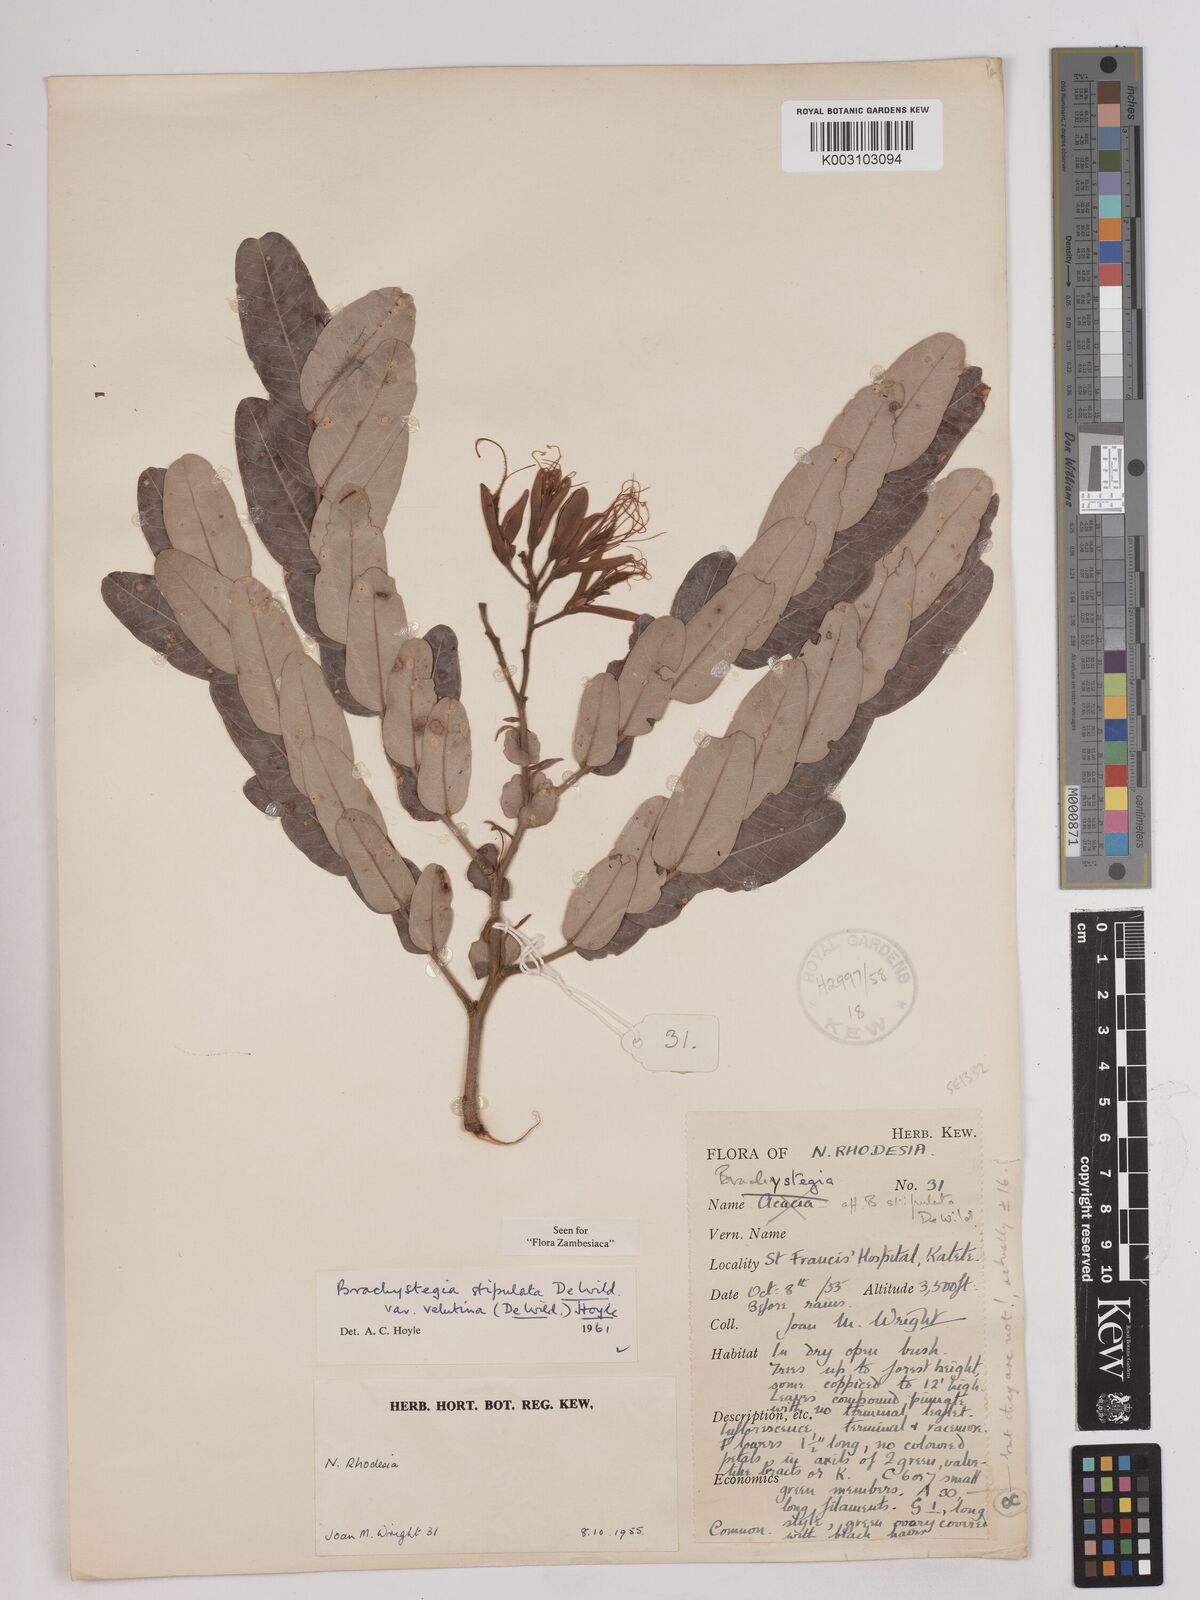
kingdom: Plantae
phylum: Tracheophyta
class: Magnoliopsida
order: Fabales
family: Fabaceae
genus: Brachystegia
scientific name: Brachystegia stipulata
